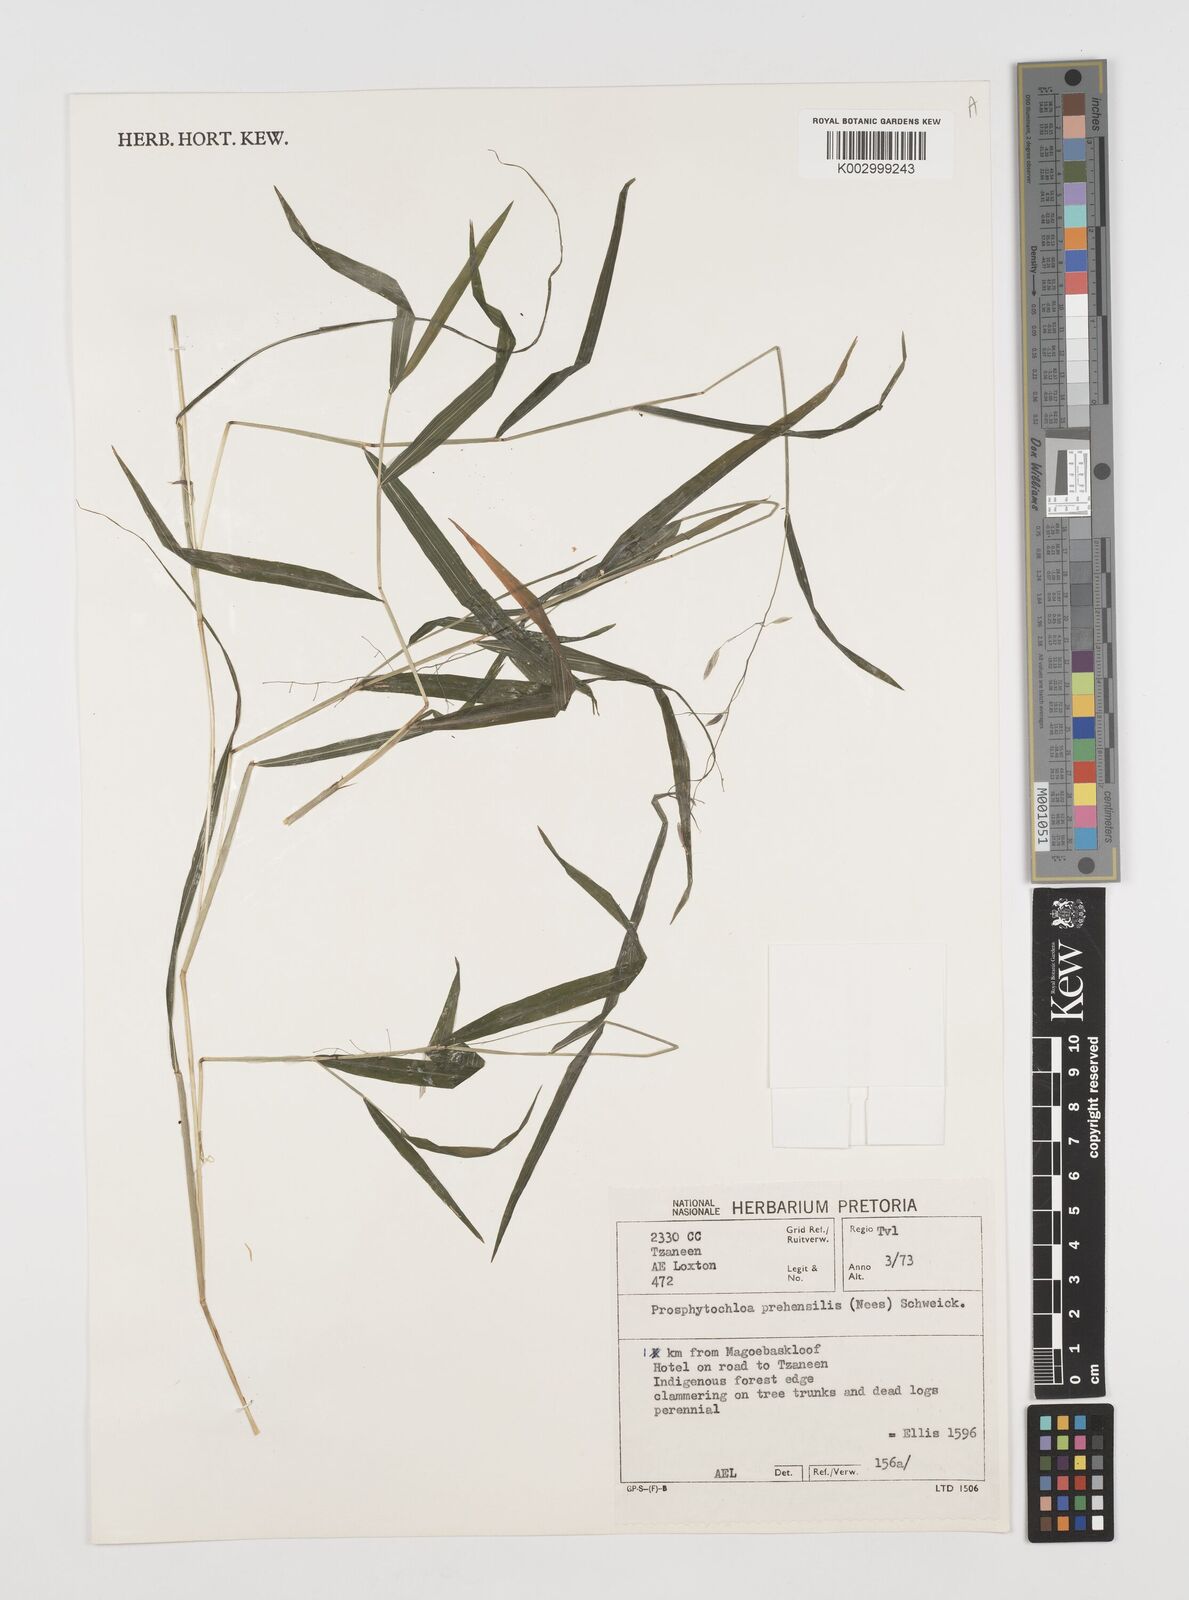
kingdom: Plantae
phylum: Tracheophyta
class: Liliopsida
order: Poales
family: Poaceae
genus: Prosphytochloa
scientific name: Prosphytochloa prehensilis
